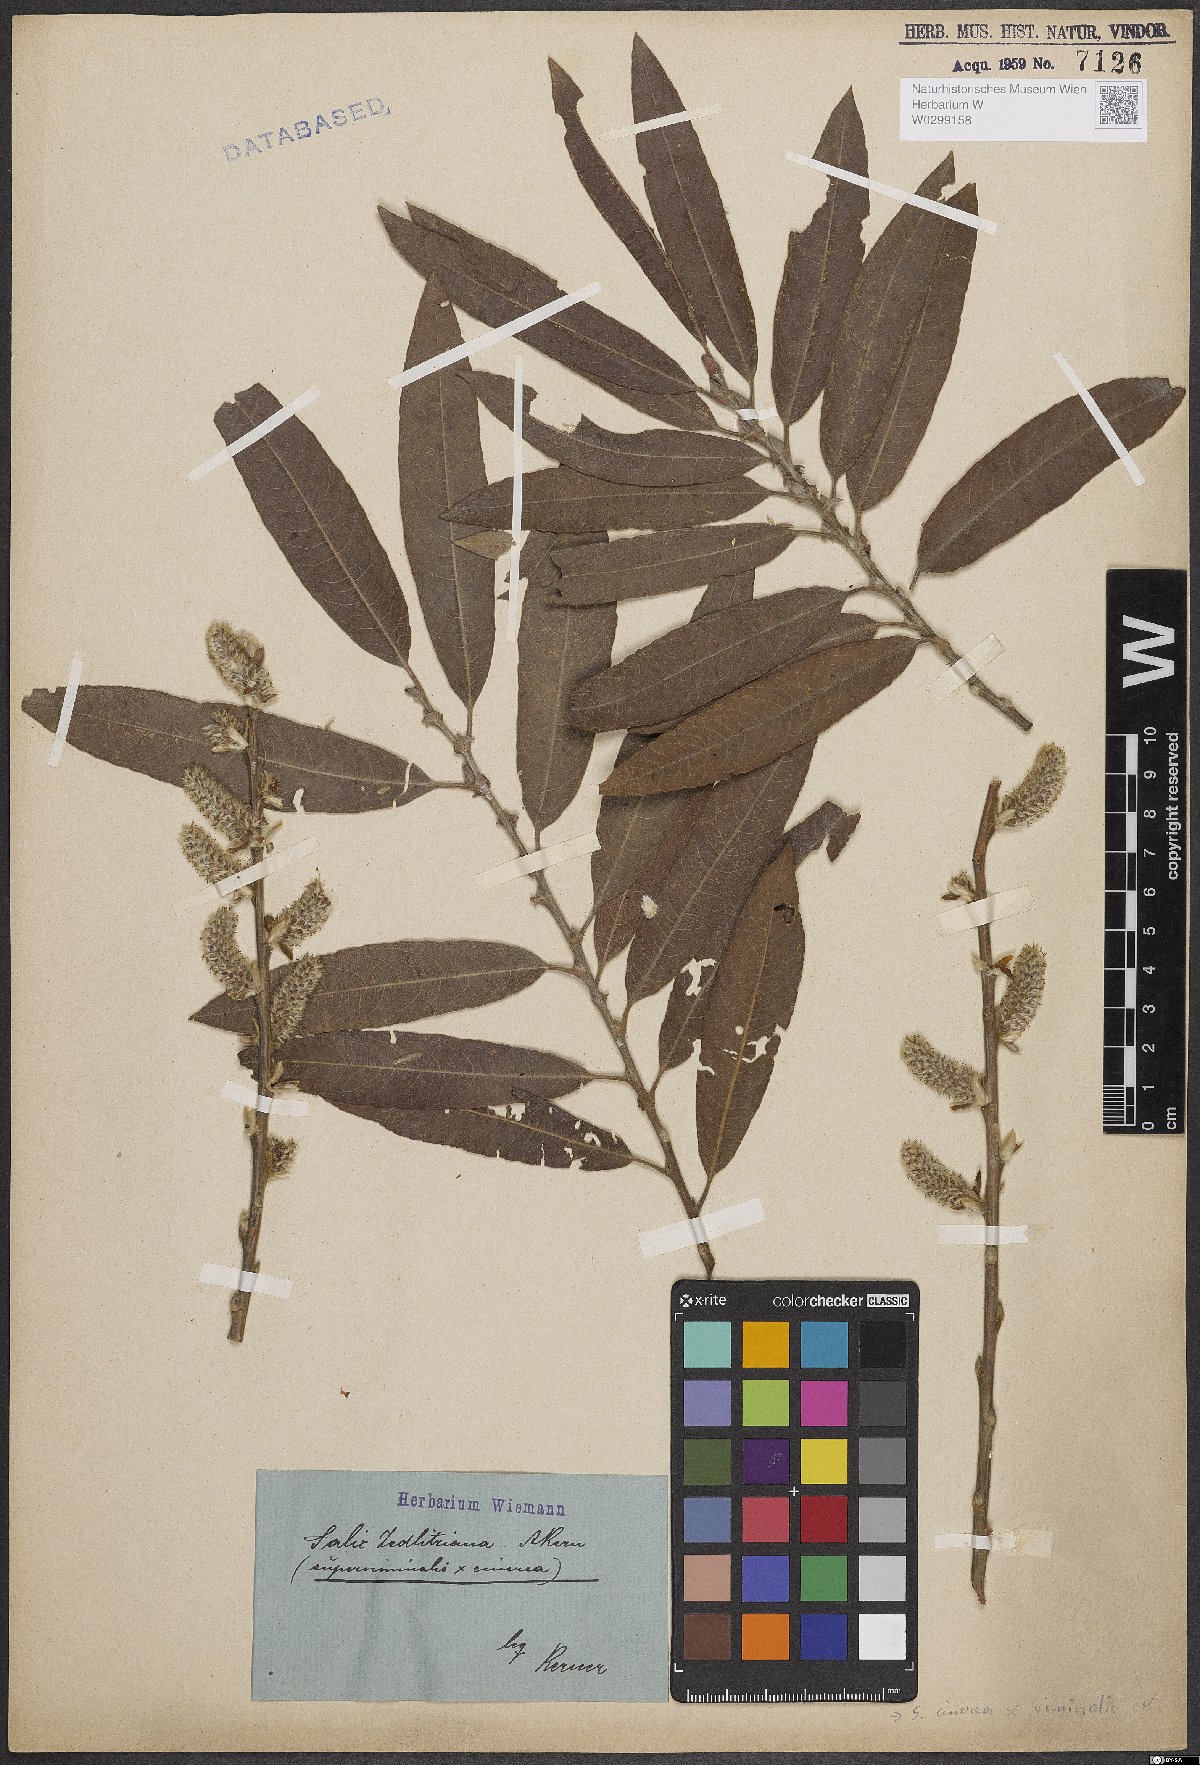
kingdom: Plantae
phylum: Tracheophyta
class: Magnoliopsida
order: Malpighiales
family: Salicaceae
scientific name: Salicaceae
